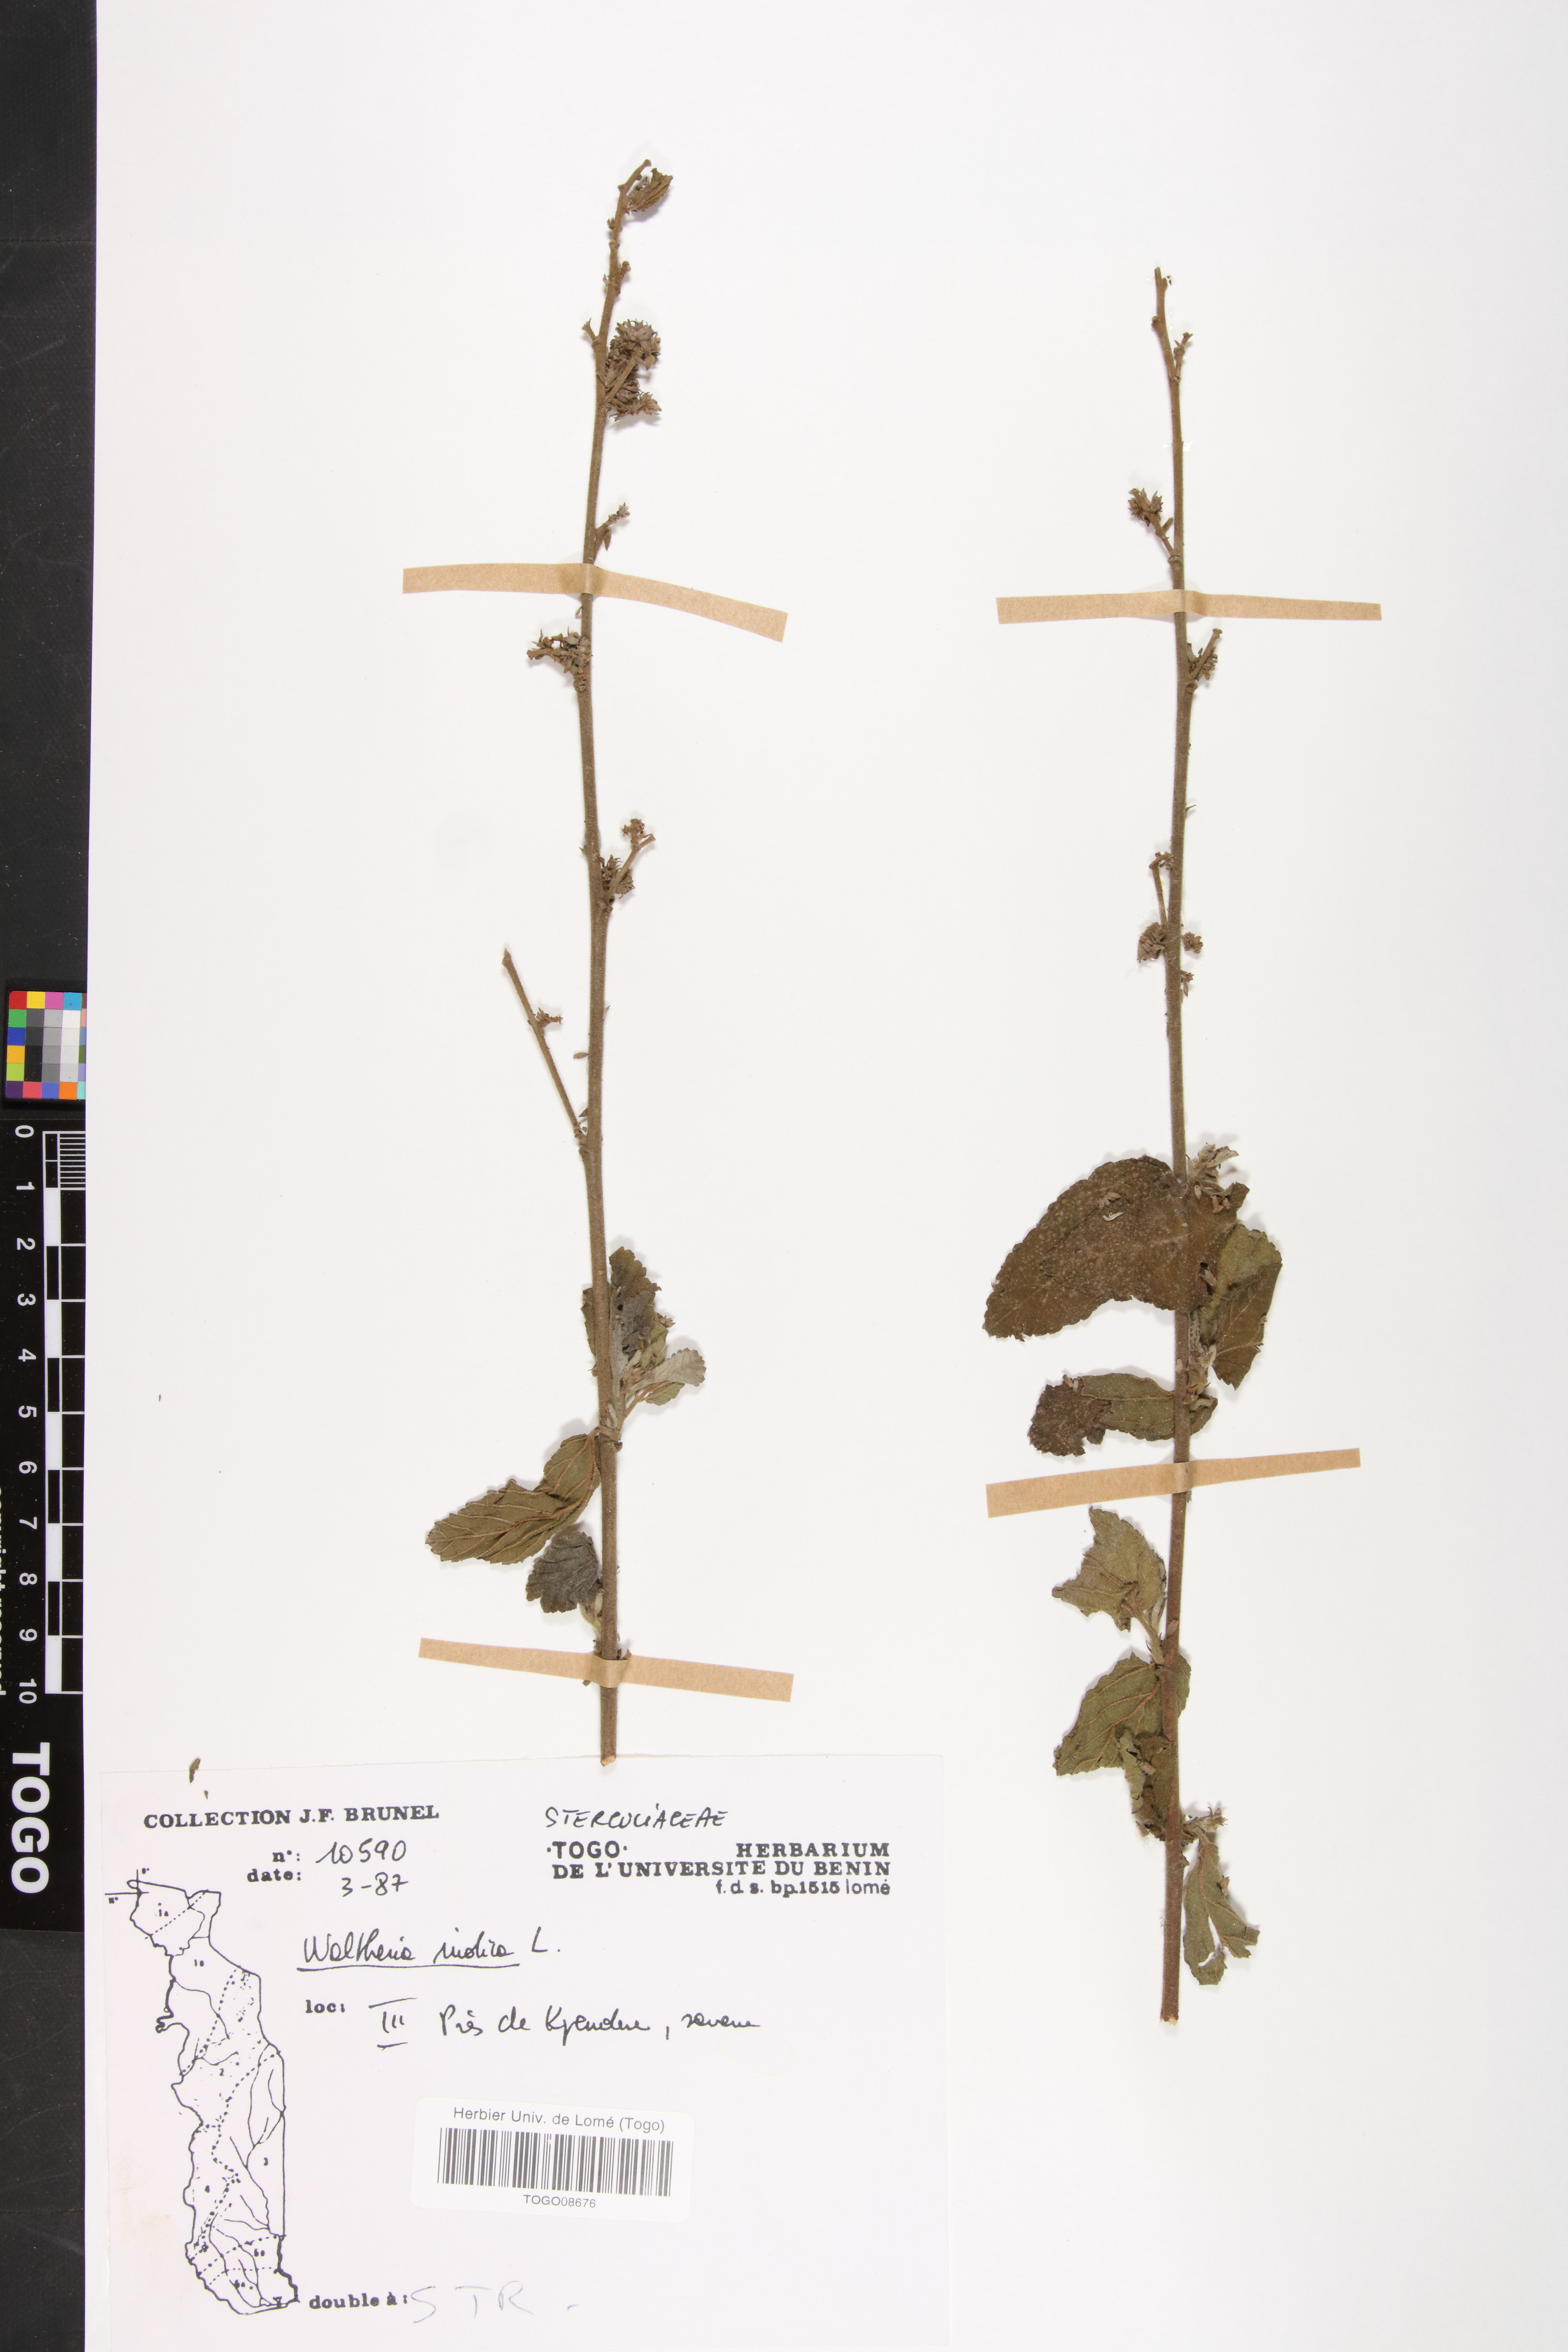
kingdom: Plantae
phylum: Tracheophyta
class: Magnoliopsida
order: Malvales
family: Malvaceae
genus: Waltheria
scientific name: Waltheria indica
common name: Leather-coat
